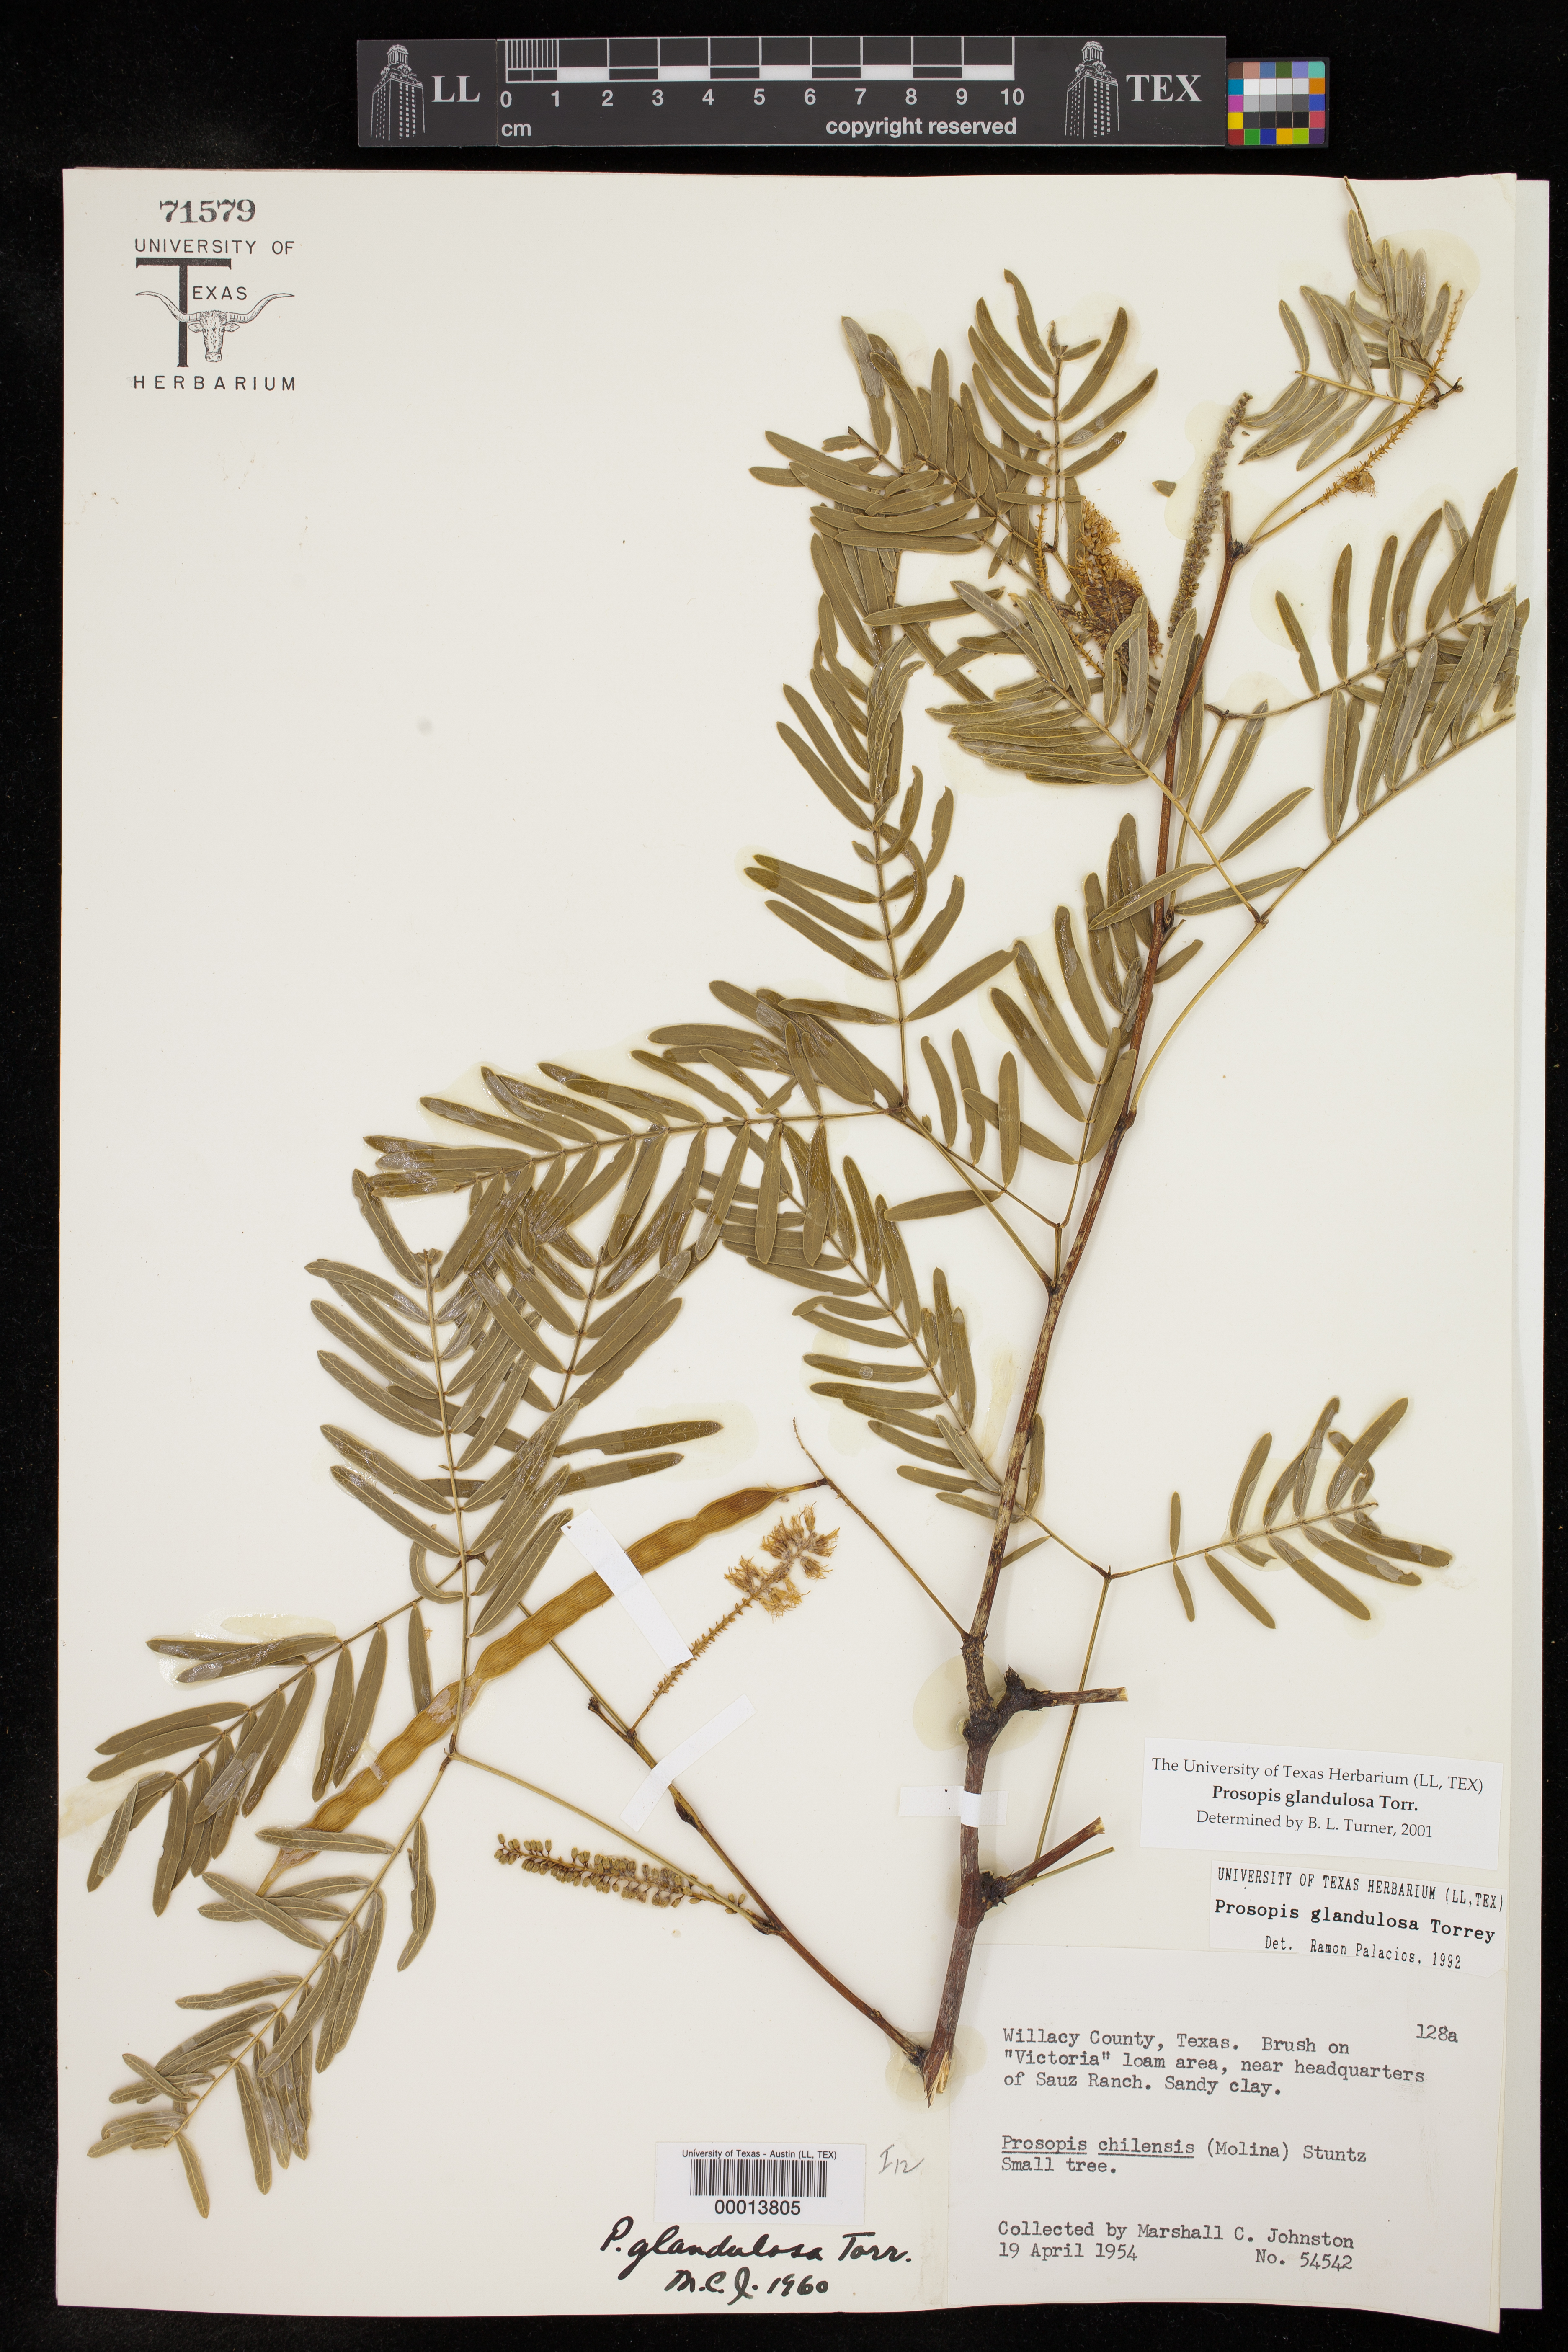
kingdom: Plantae
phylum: Tracheophyta
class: Magnoliopsida
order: Fabales
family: Fabaceae
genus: Prosopis
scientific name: Prosopis glandulosa
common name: Honey mesquite
